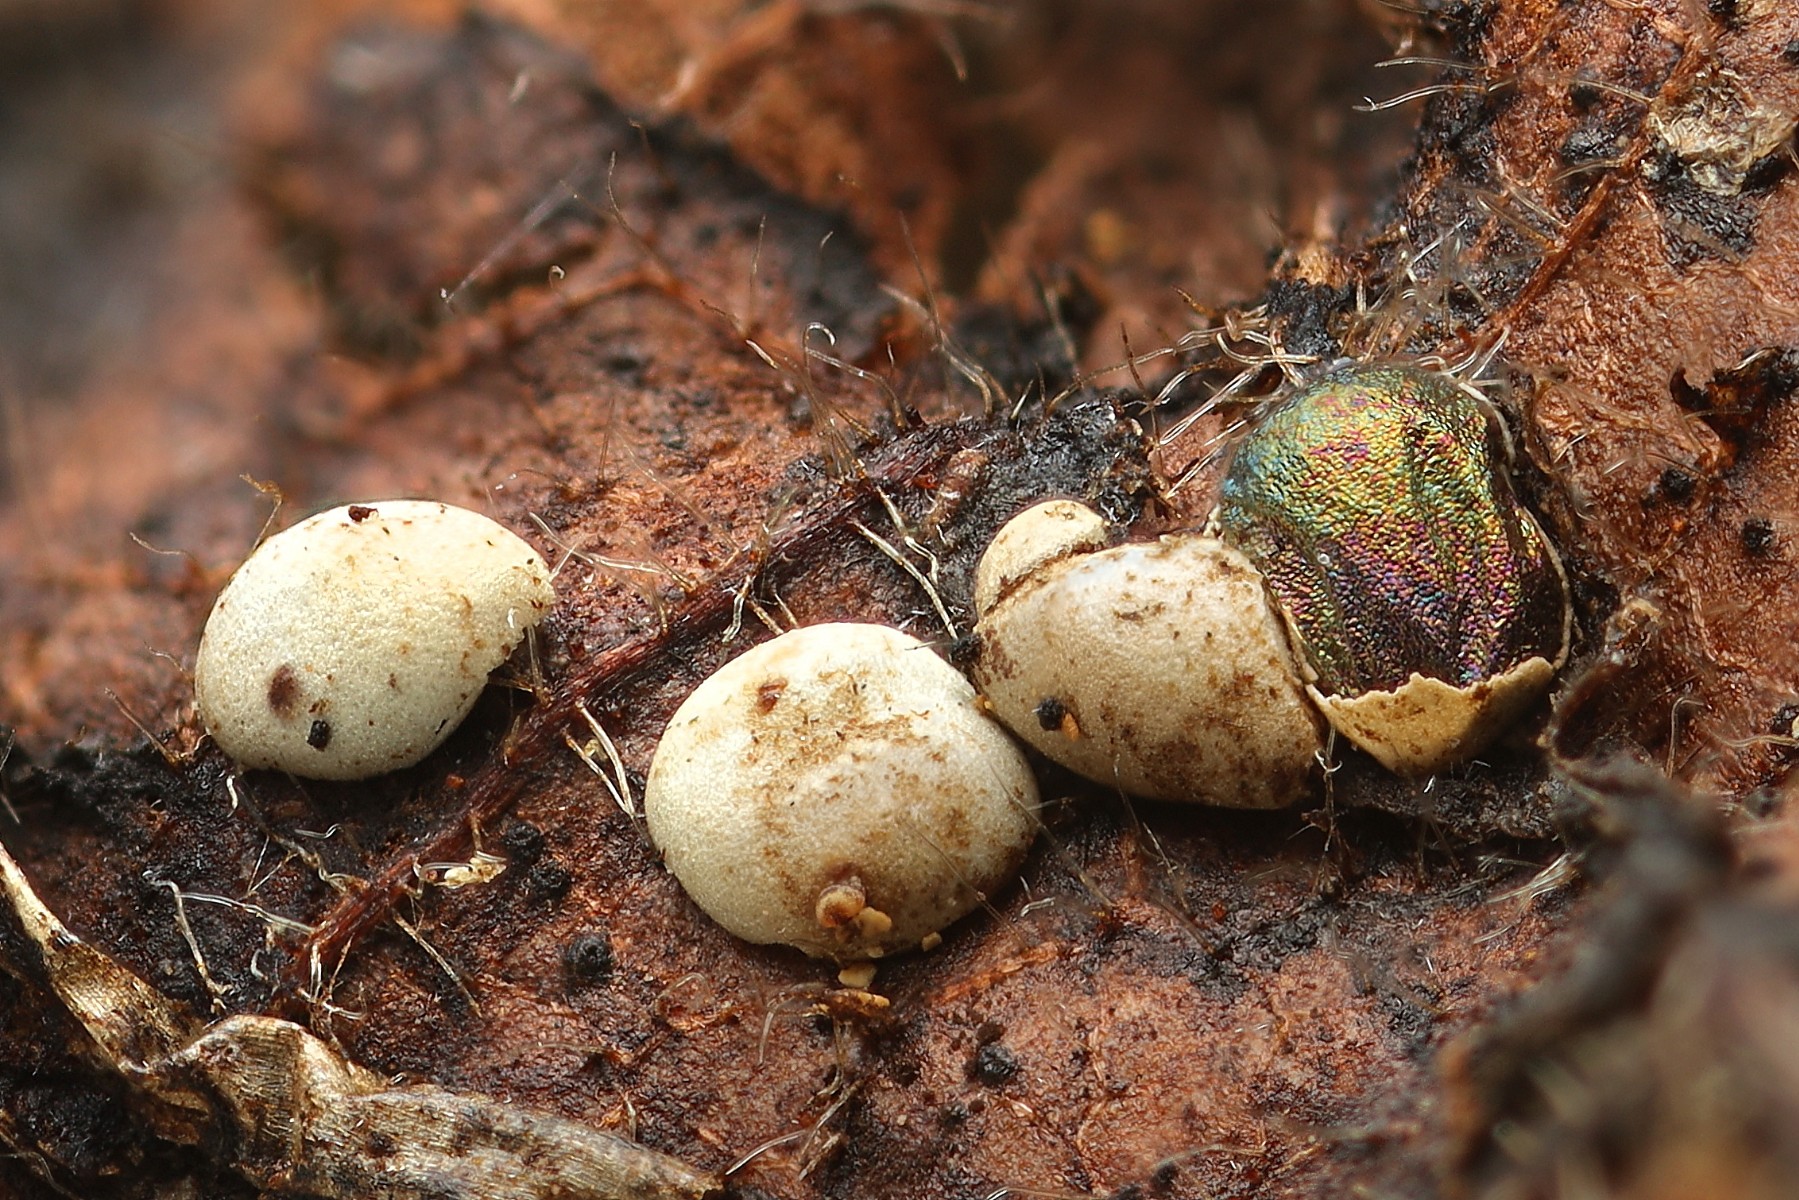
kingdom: Protozoa
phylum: Mycetozoa
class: Myxomycetes
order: Physarales
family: Didymiaceae
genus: Didymium
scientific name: Didymium difforme
